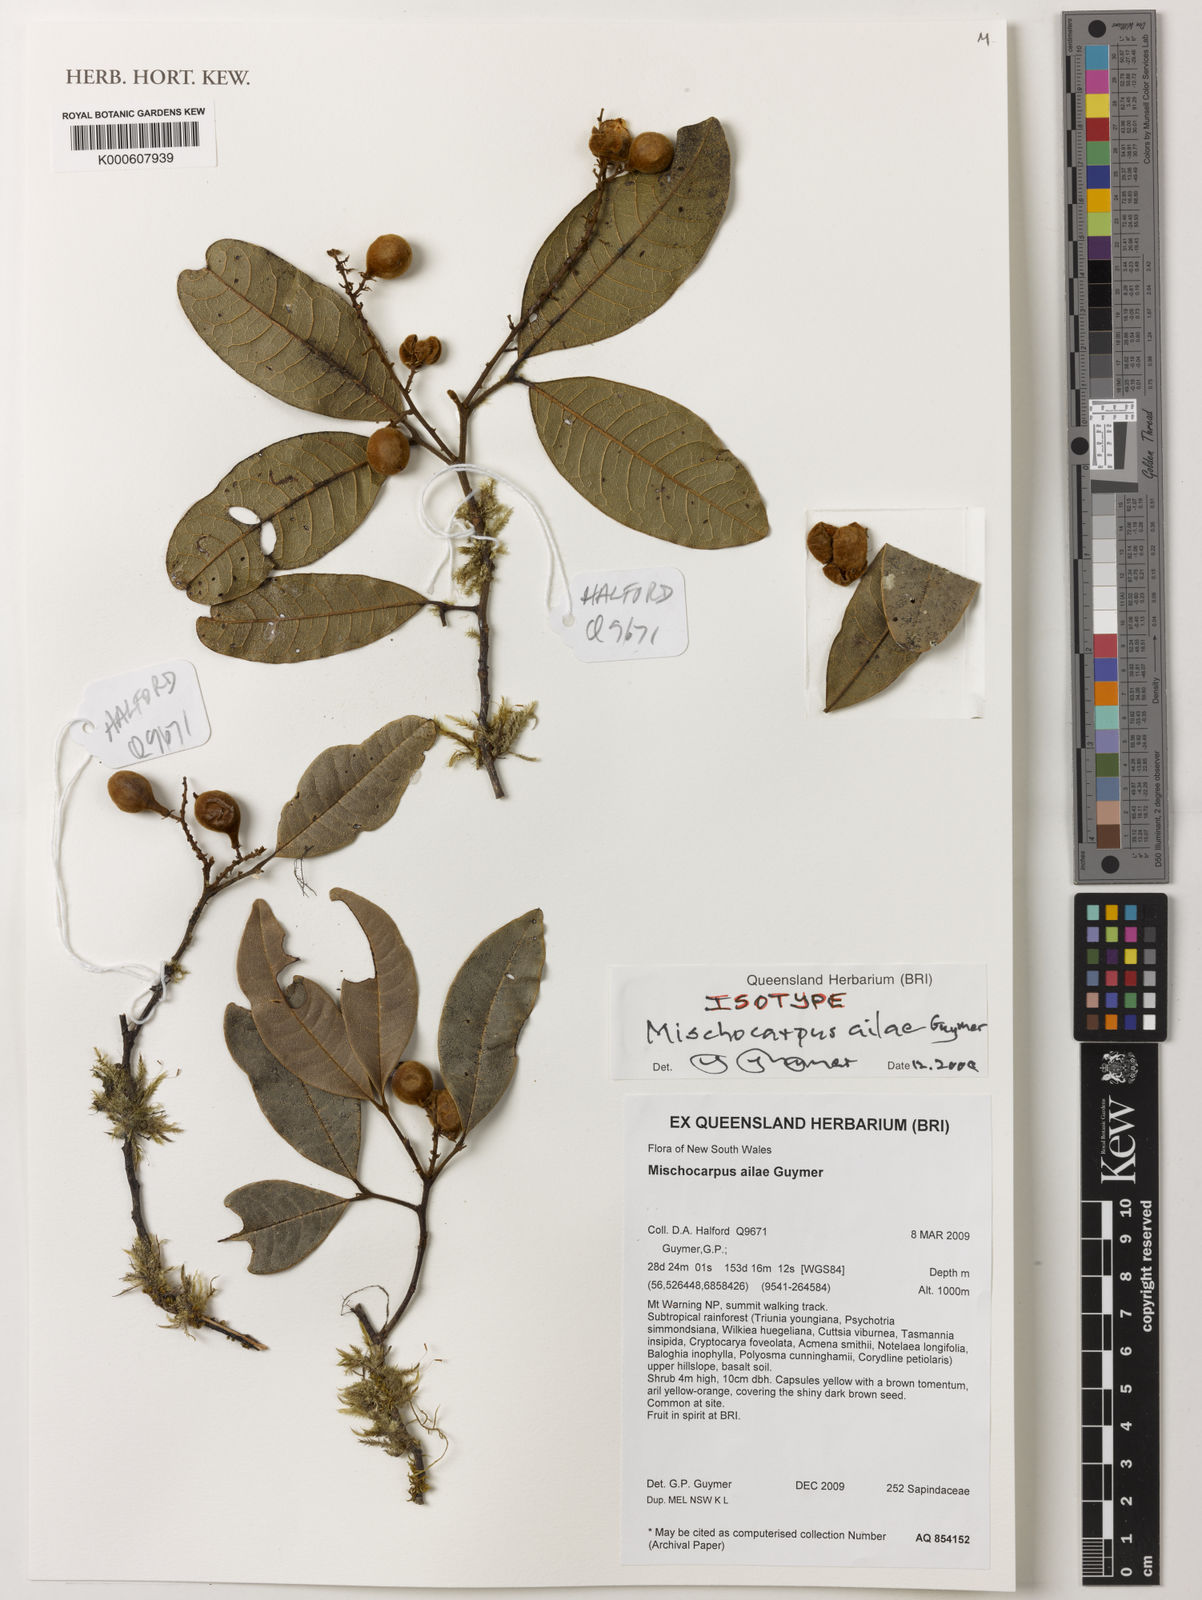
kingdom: Plantae
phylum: Tracheophyta
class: Magnoliopsida
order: Sapindales
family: Sapindaceae
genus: Mischocarpus
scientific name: Mischocarpus ailae
